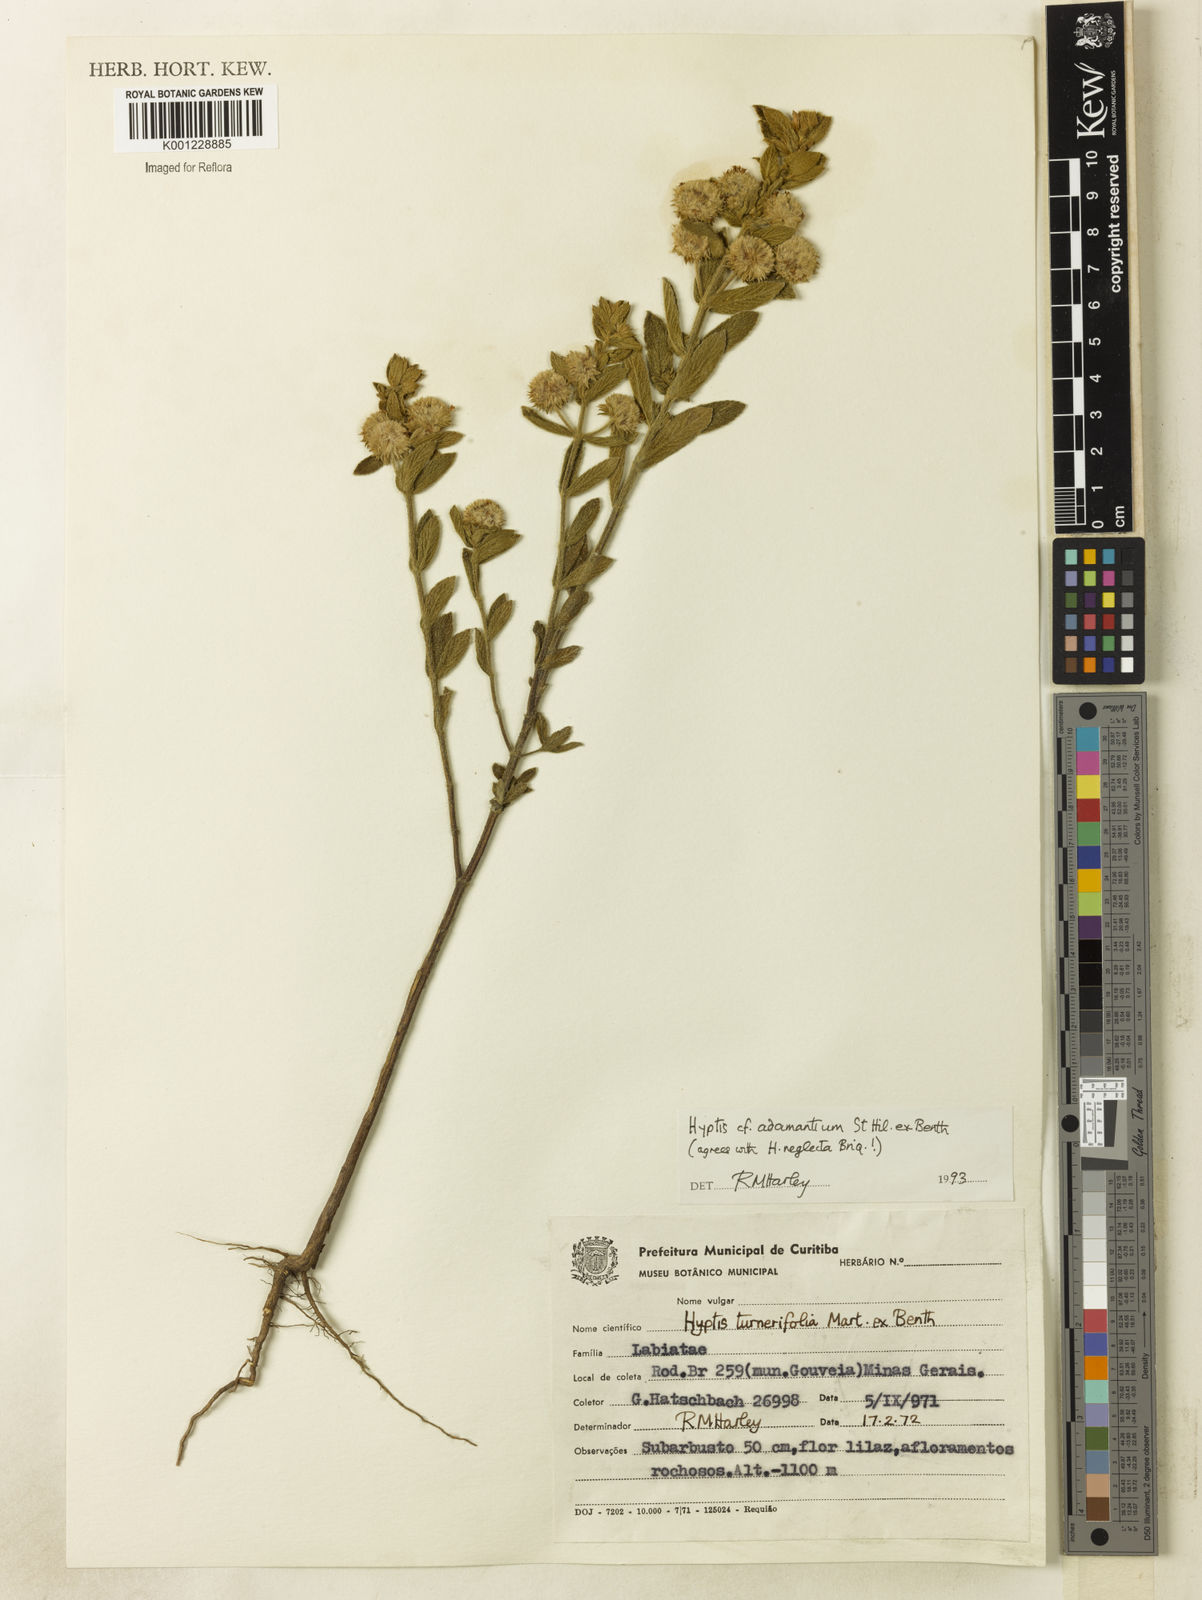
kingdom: Plantae
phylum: Tracheophyta
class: Magnoliopsida
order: Lamiales
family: Lamiaceae
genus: Hyptis
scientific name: Hyptis adamantium
